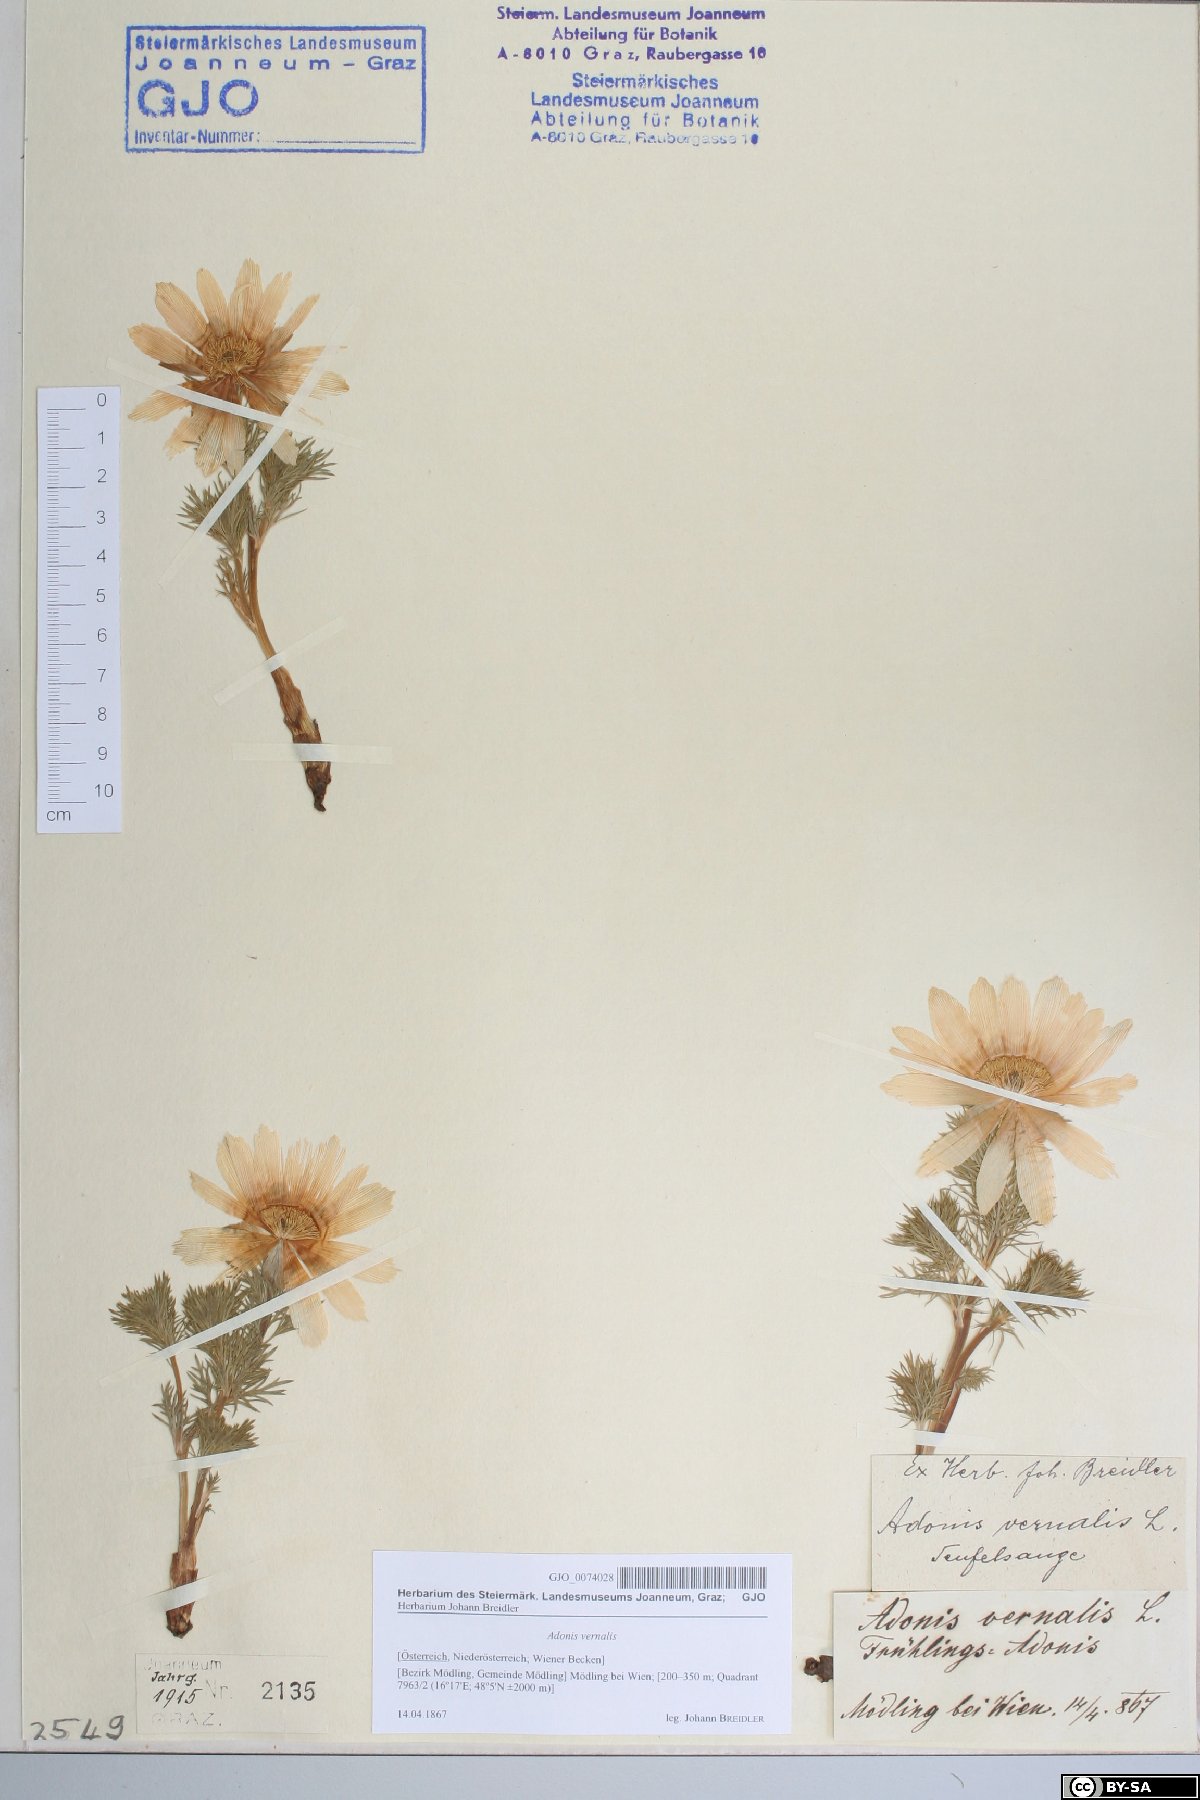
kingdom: Plantae
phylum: Tracheophyta
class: Magnoliopsida
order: Ranunculales
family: Ranunculaceae
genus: Adonis
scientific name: Adonis vernalis
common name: Yellow pheasants-eye
